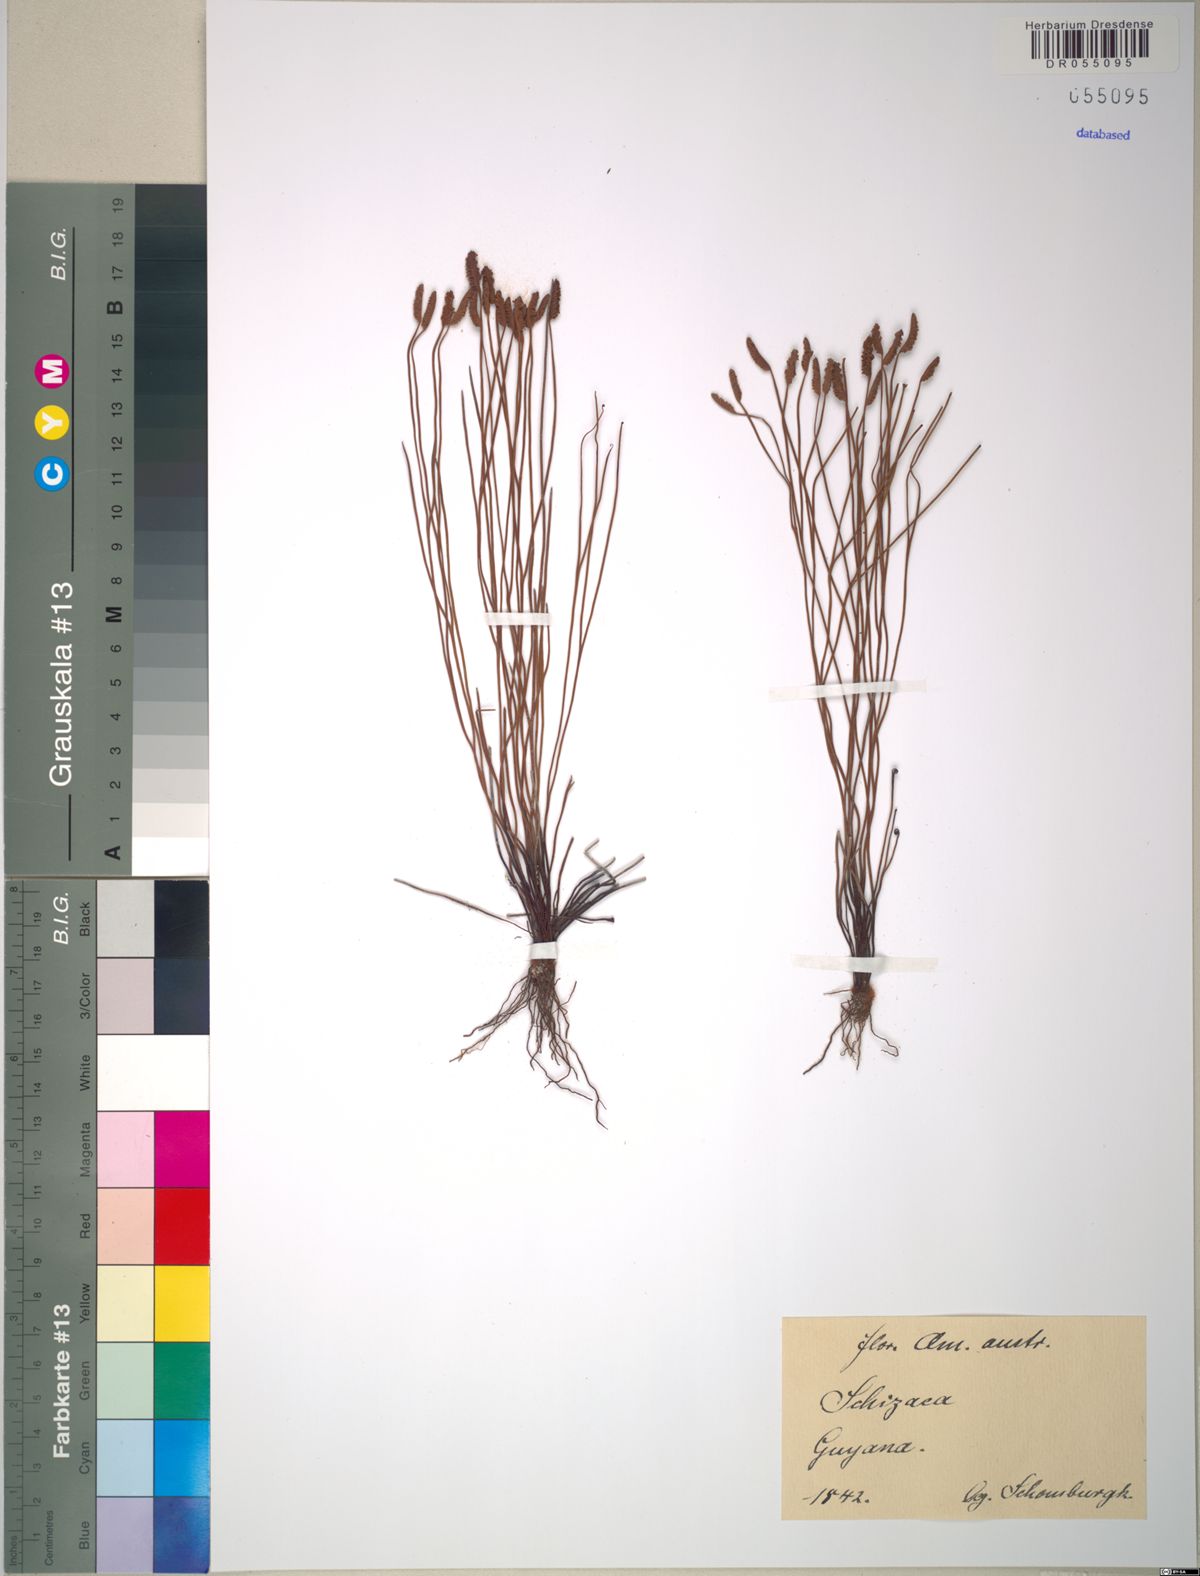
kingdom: Plantae
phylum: Tracheophyta
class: Polypodiopsida
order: Schizaeales
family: Schizaeaceae
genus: Schizaea
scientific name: Schizaea
